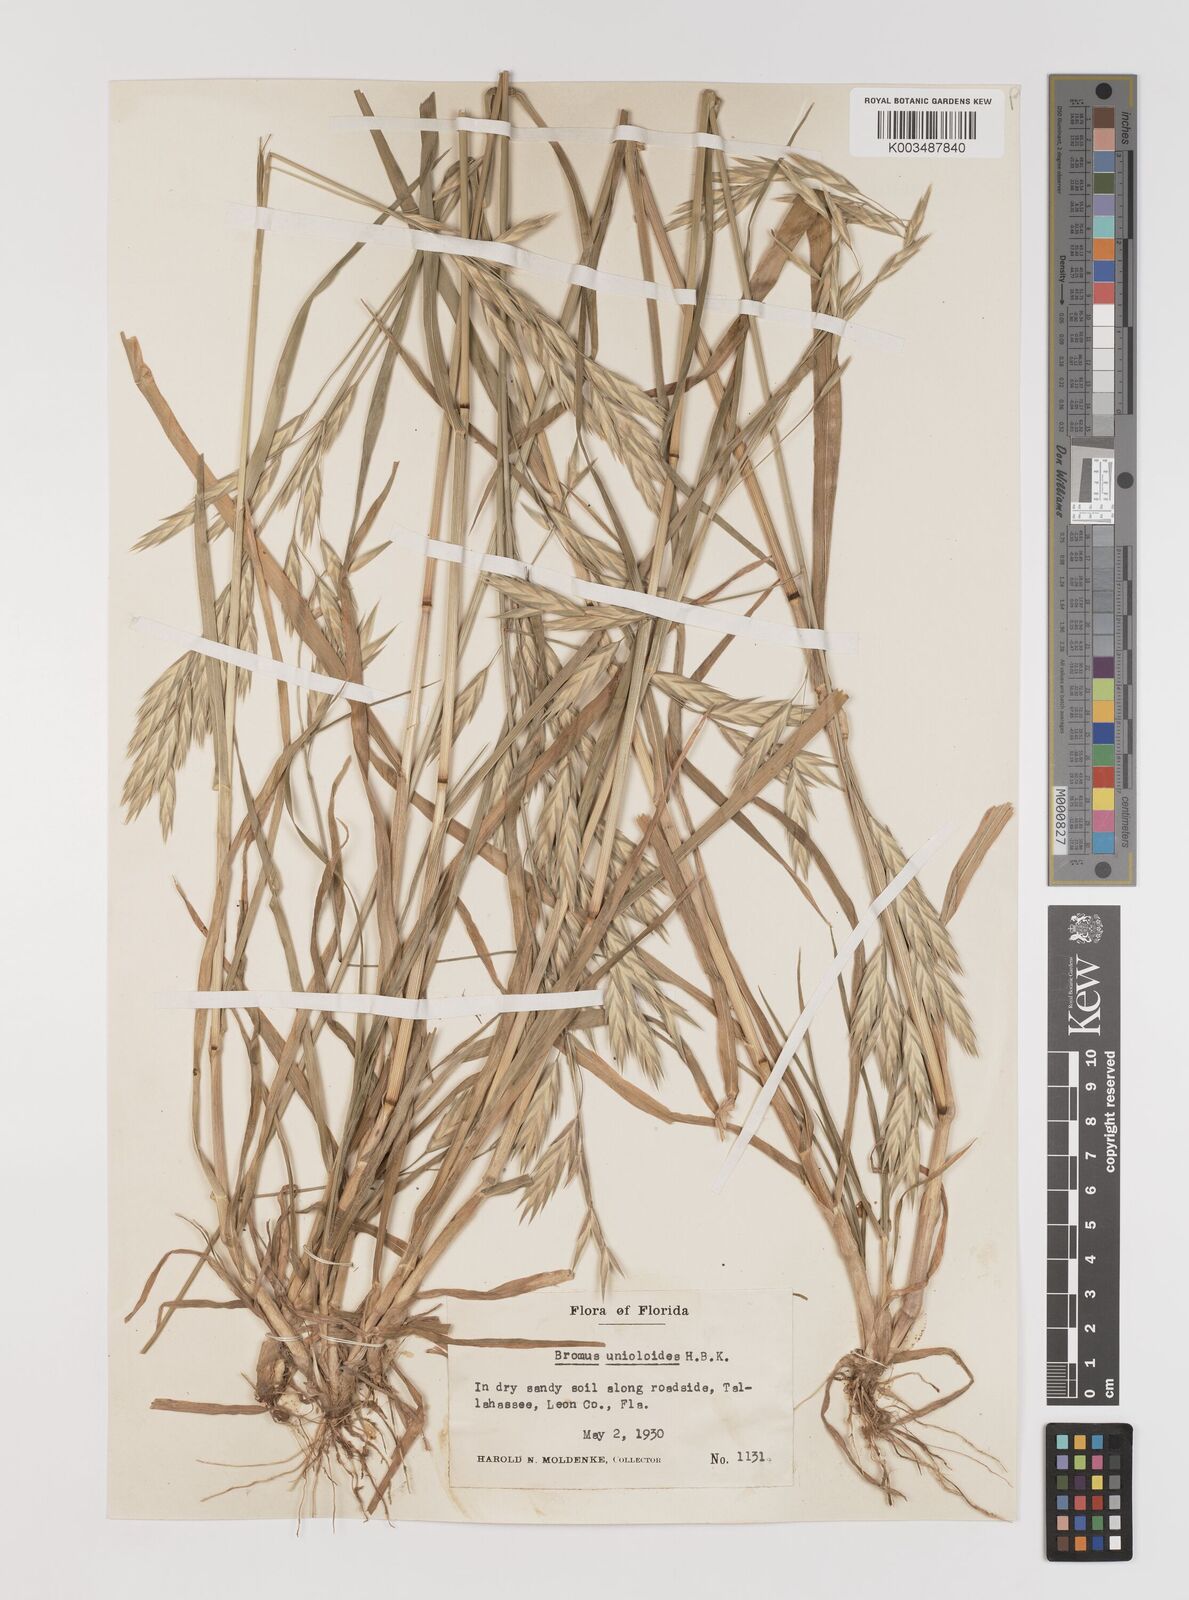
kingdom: Plantae
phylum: Tracheophyta
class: Liliopsida
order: Poales
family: Poaceae
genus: Bromus
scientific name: Bromus catharticus
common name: Rescuegrass
